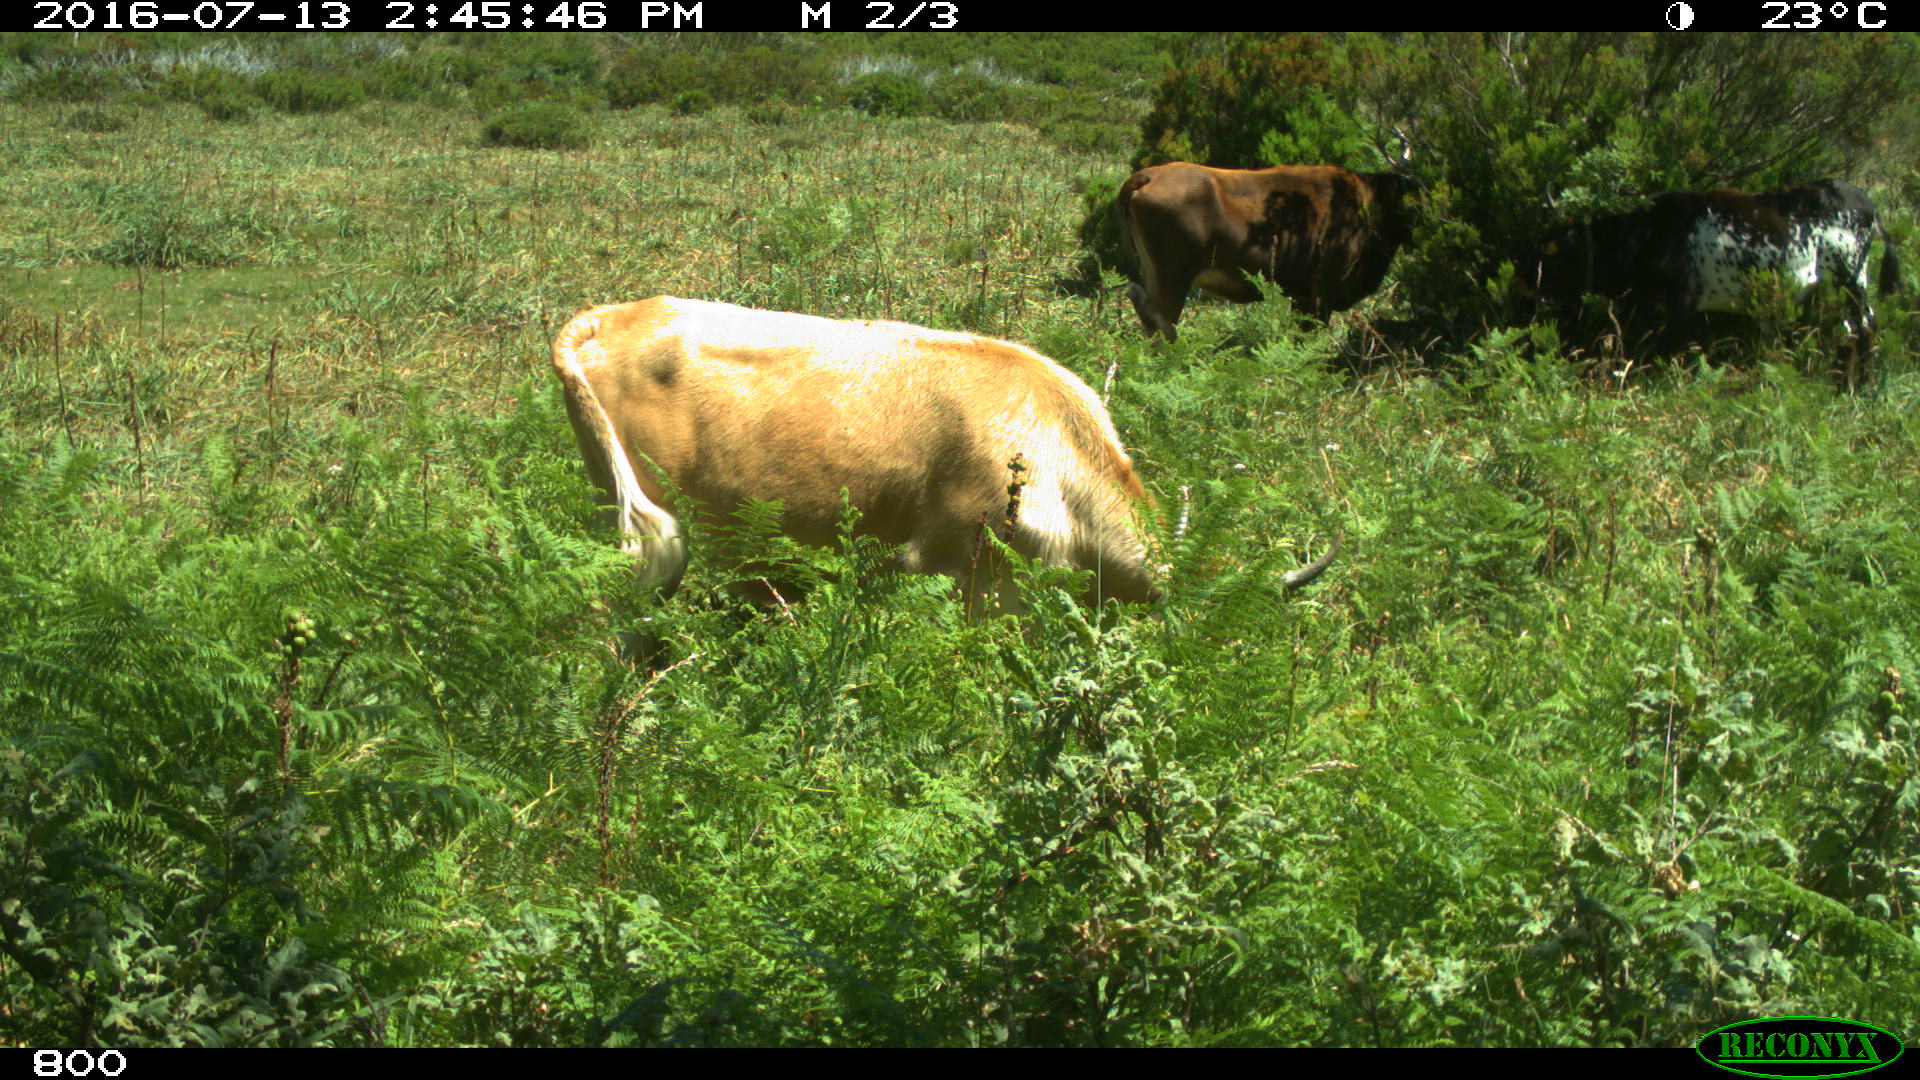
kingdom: Animalia
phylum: Chordata
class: Mammalia
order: Artiodactyla
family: Bovidae
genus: Bos
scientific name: Bos taurus
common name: Domesticated cattle
